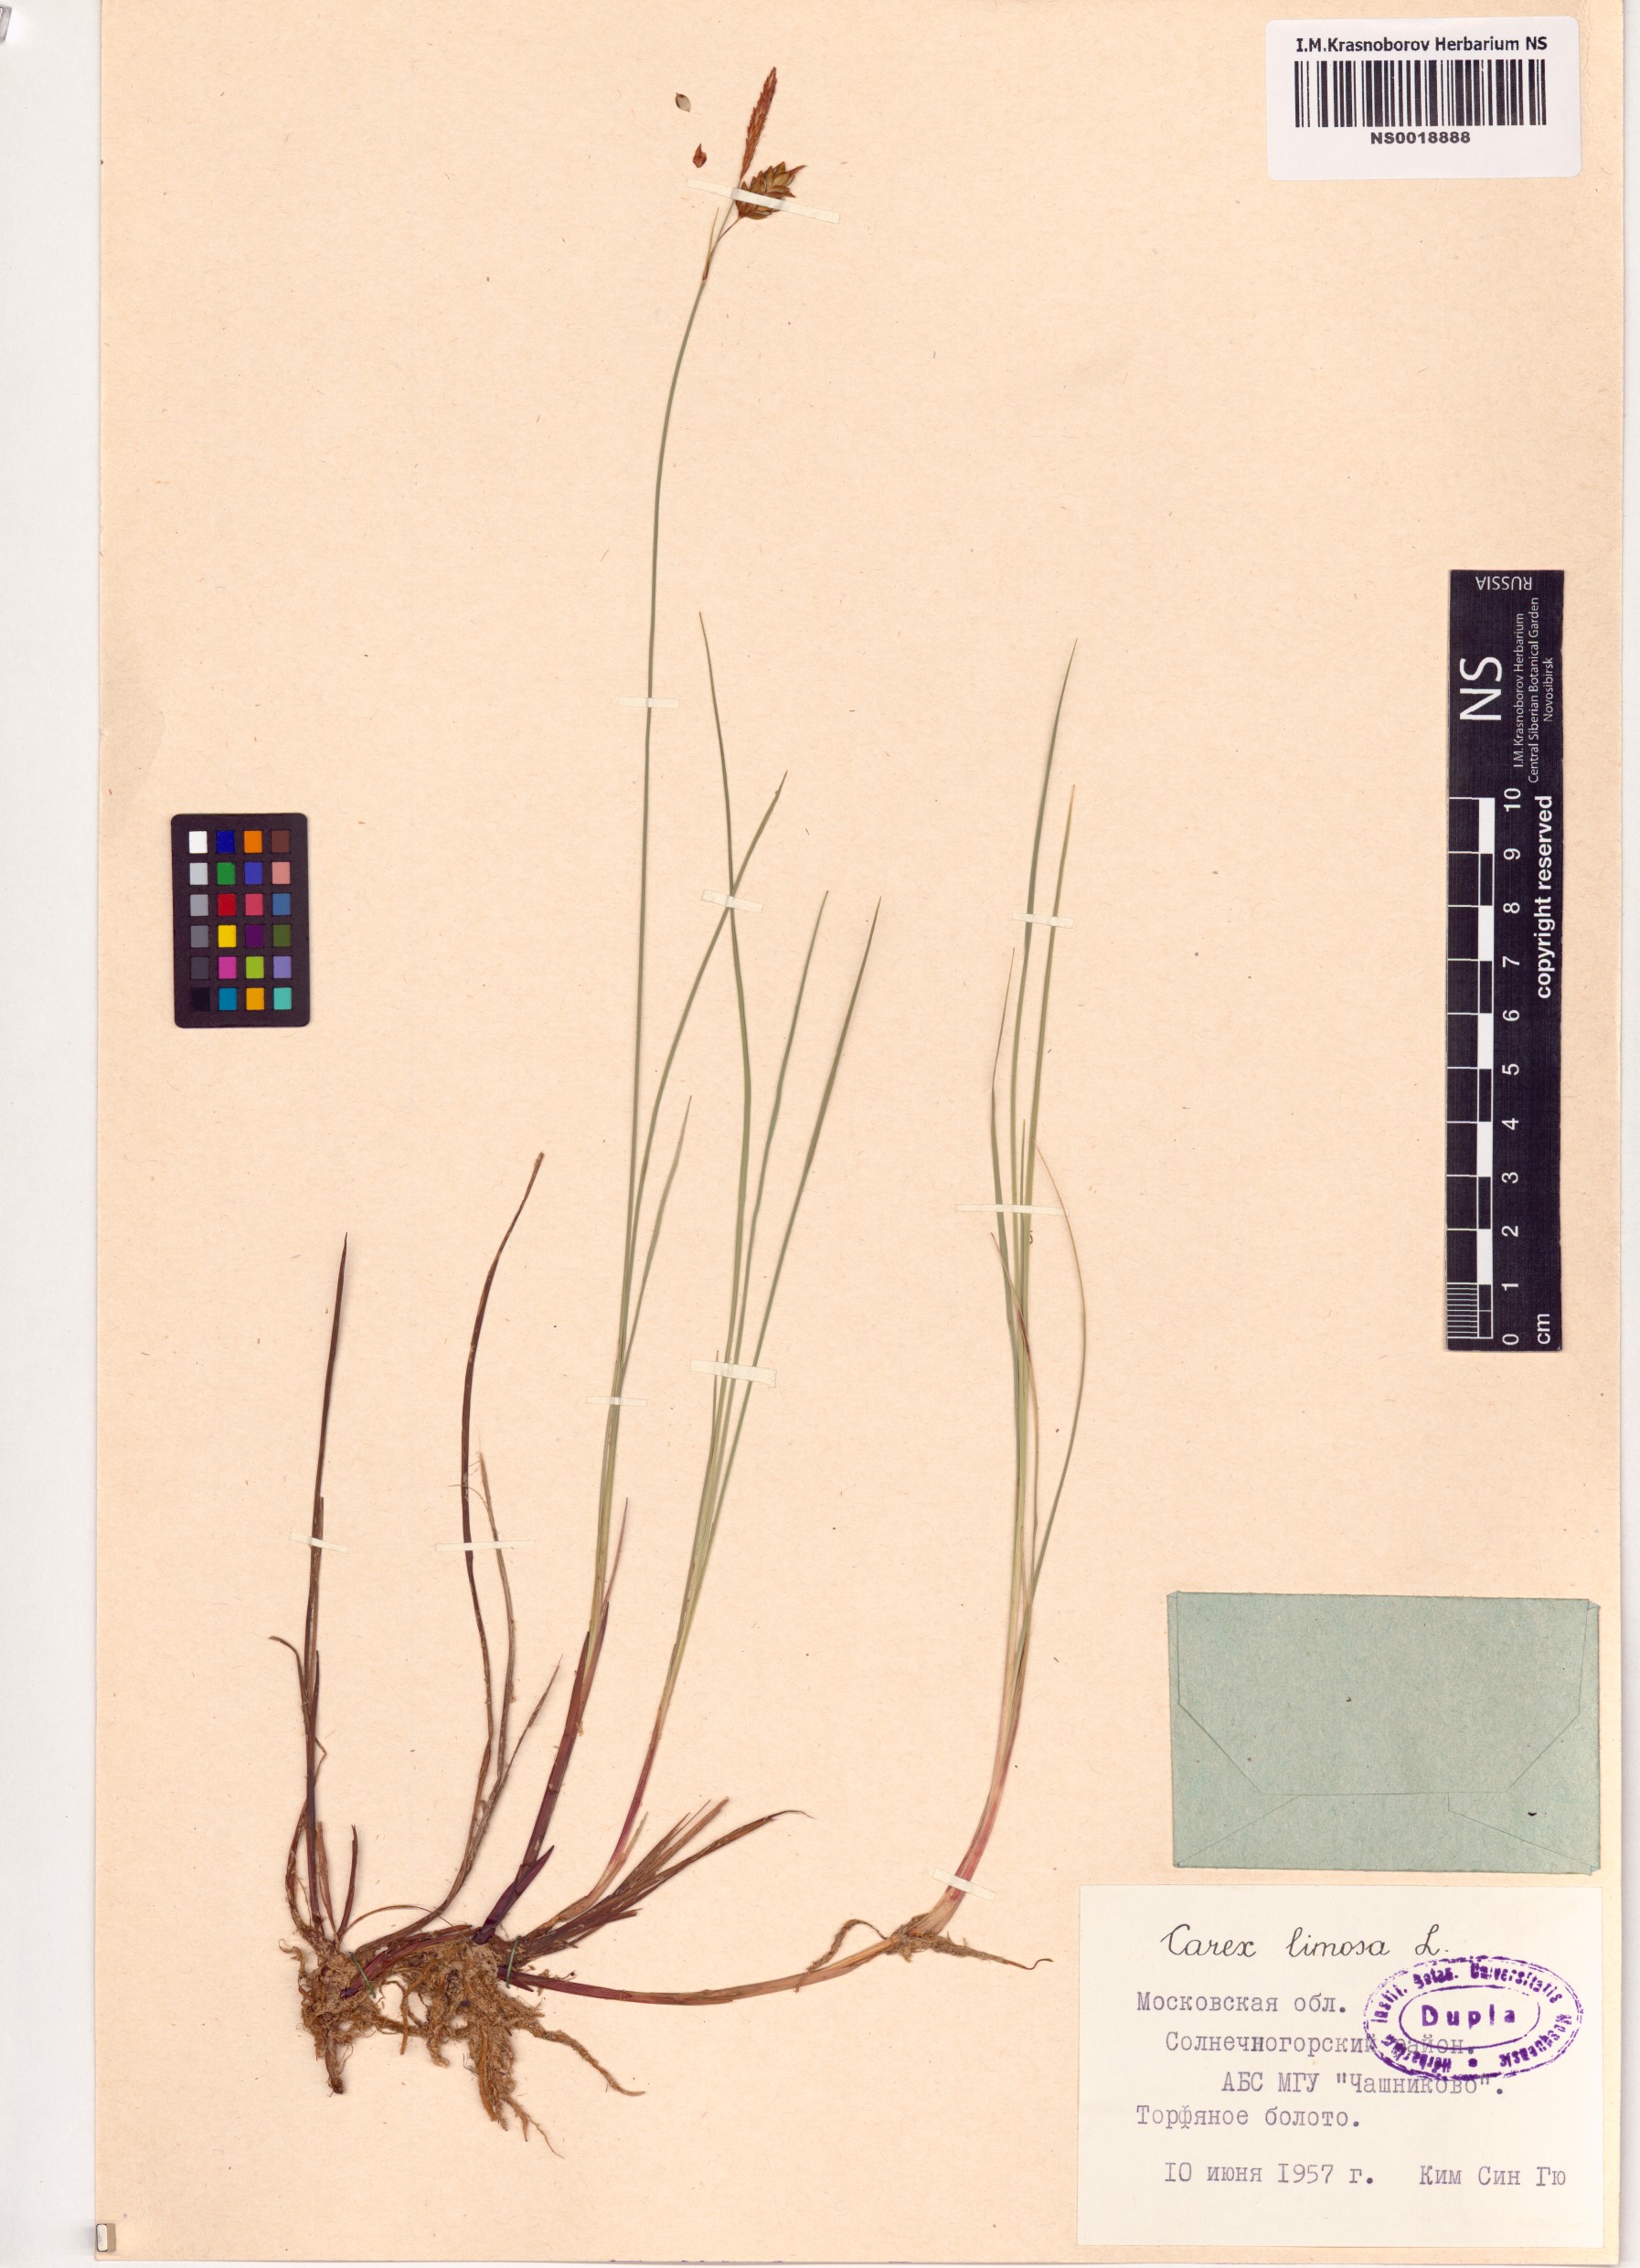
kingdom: Plantae
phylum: Tracheophyta
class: Liliopsida
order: Poales
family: Cyperaceae
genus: Carex
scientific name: Carex limosa
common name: Bog sedge
